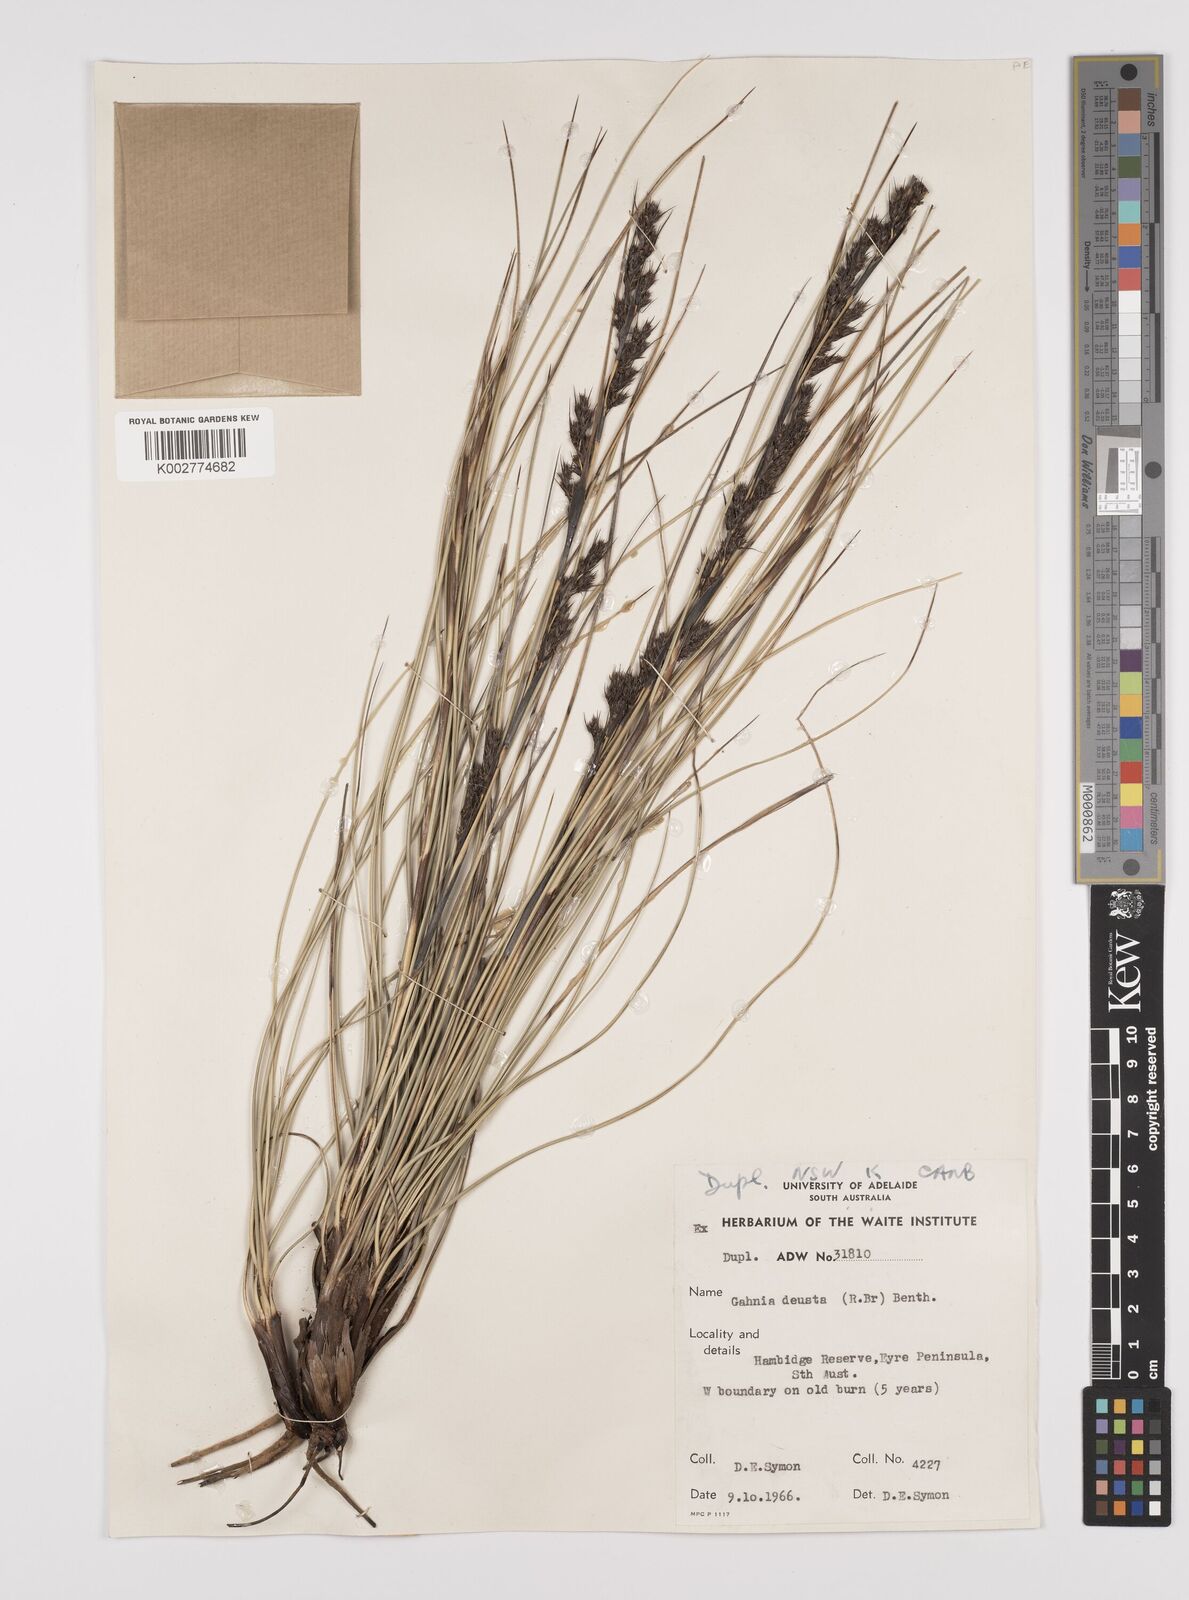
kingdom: Plantae
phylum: Tracheophyta
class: Liliopsida
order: Poales
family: Cyperaceae
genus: Gahnia
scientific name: Gahnia deusta
